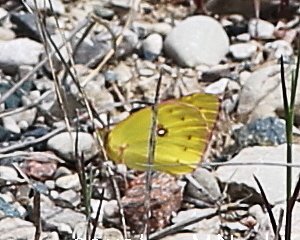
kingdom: Animalia
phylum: Arthropoda
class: Insecta
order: Lepidoptera
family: Pieridae
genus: Colias
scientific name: Colias philodice
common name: Clouded Sulphur
